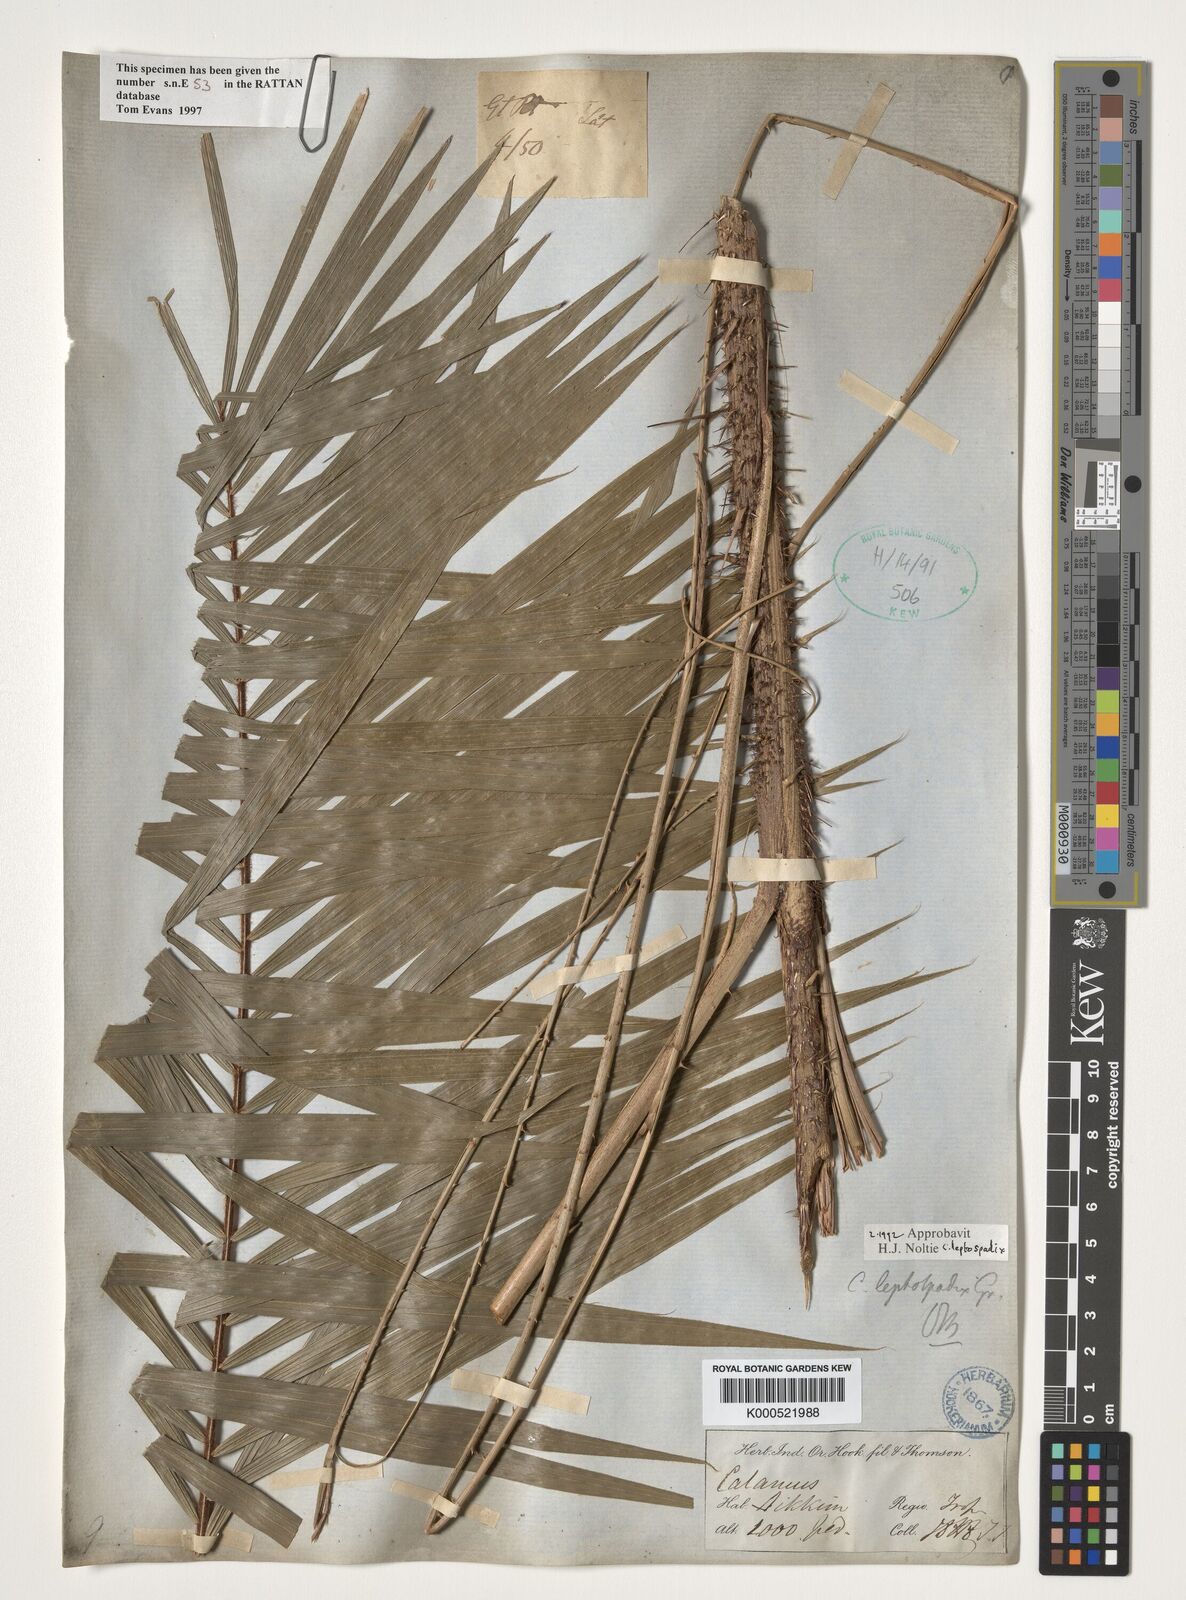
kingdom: Plantae
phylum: Tracheophyta
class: Liliopsida
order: Arecales
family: Arecaceae
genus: Calamus
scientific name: Calamus leptospadix
